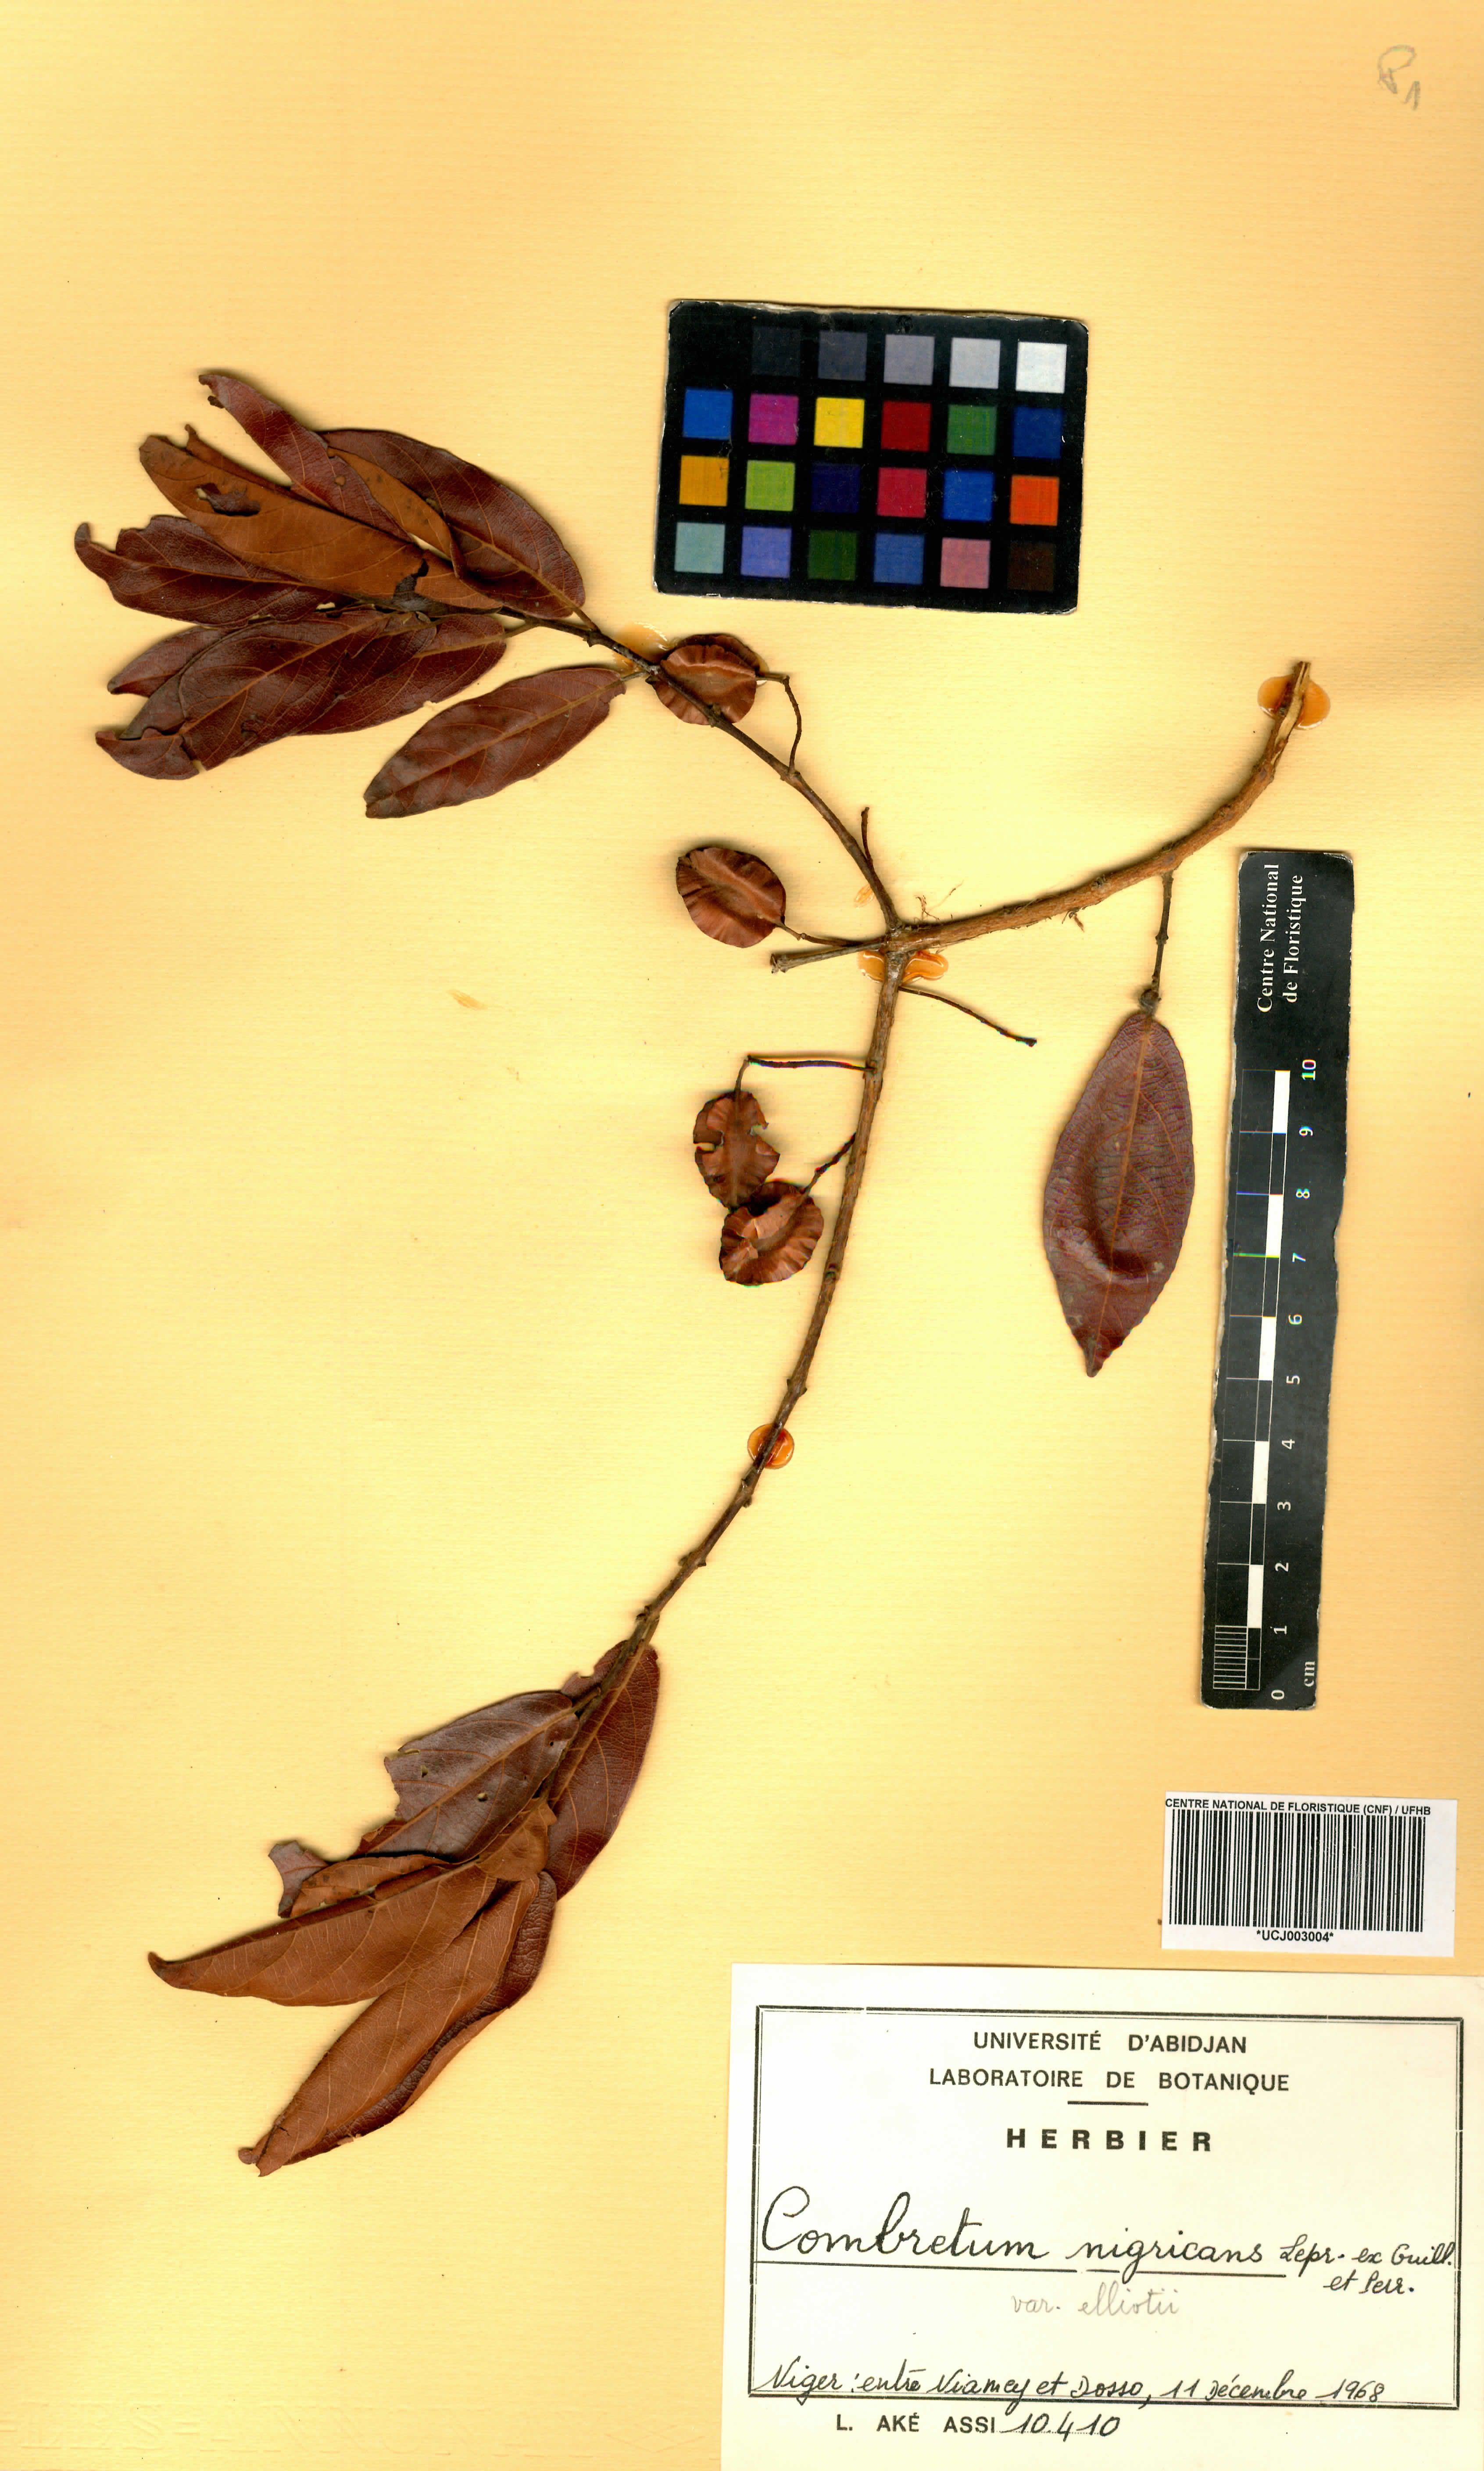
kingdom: Plantae
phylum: Tracheophyta
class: Magnoliopsida
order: Myrtales
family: Combretaceae
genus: Combretum
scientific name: Combretum nigricans
